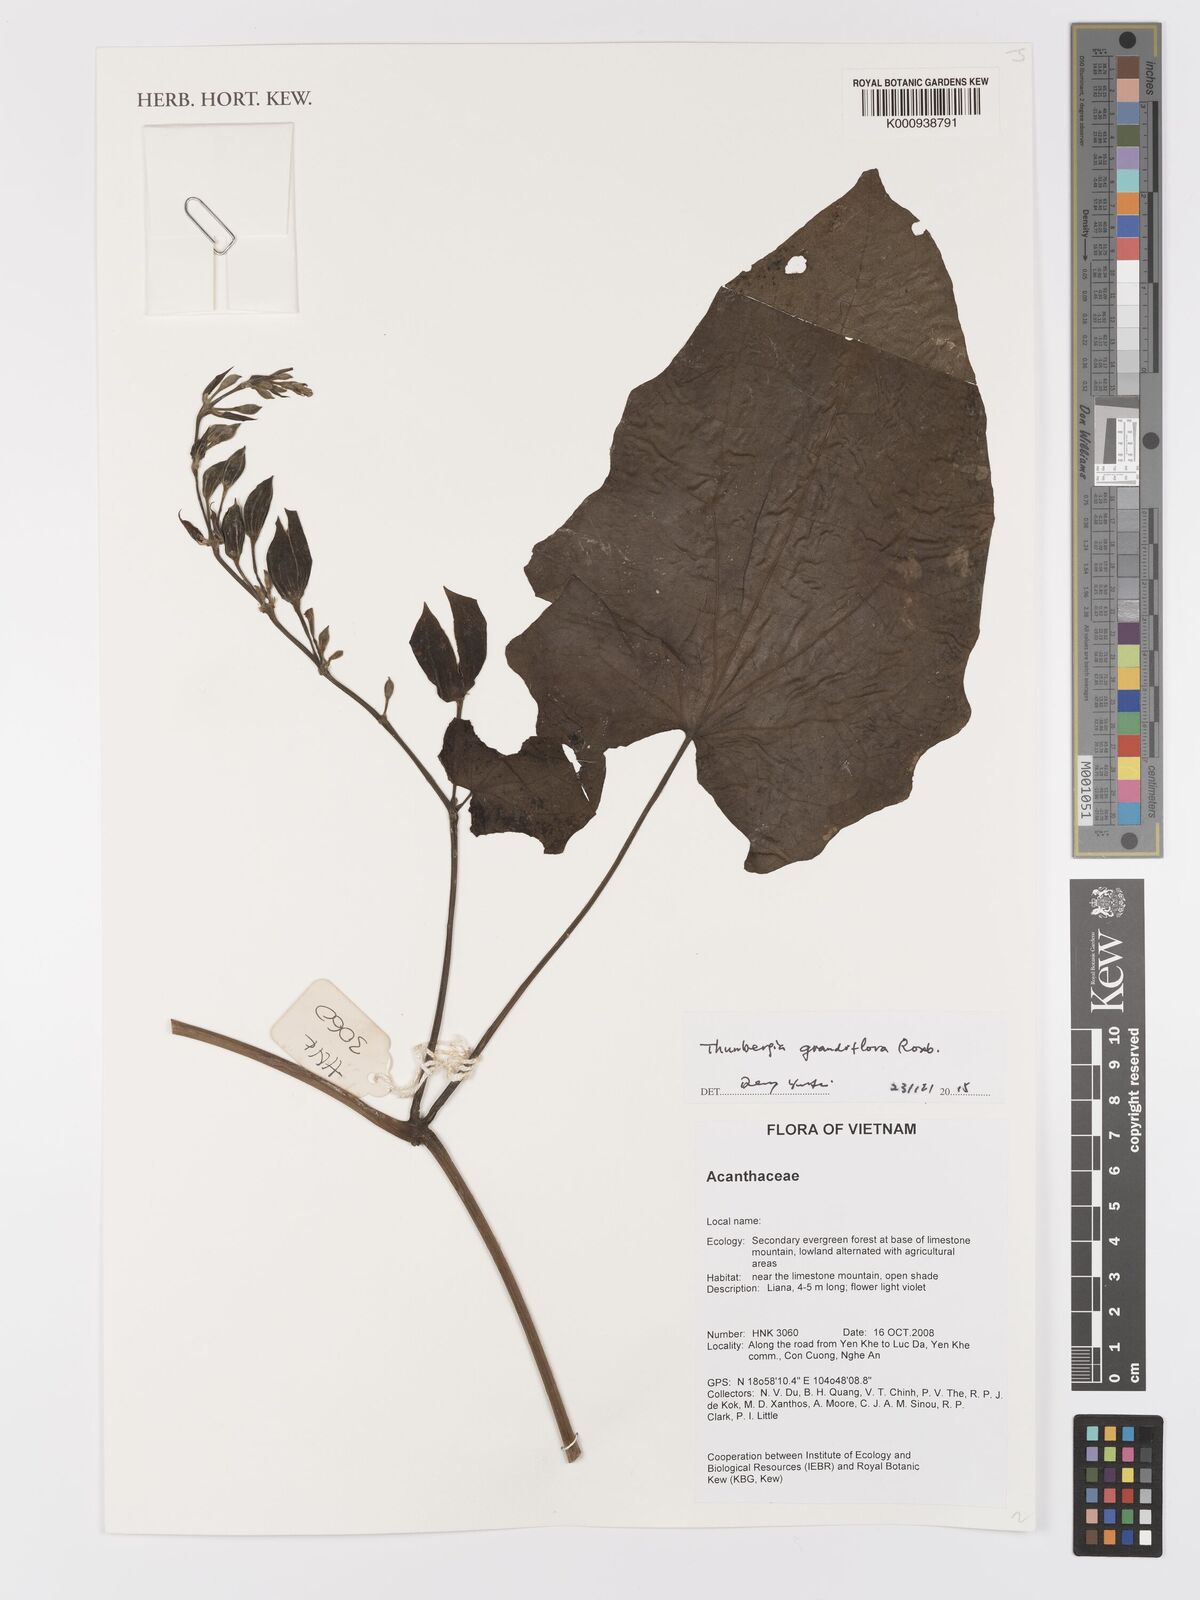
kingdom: Plantae
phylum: Tracheophyta
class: Magnoliopsida
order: Lamiales
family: Acanthaceae
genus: Thunbergia
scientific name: Thunbergia grandiflora
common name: Bengal trumpet
